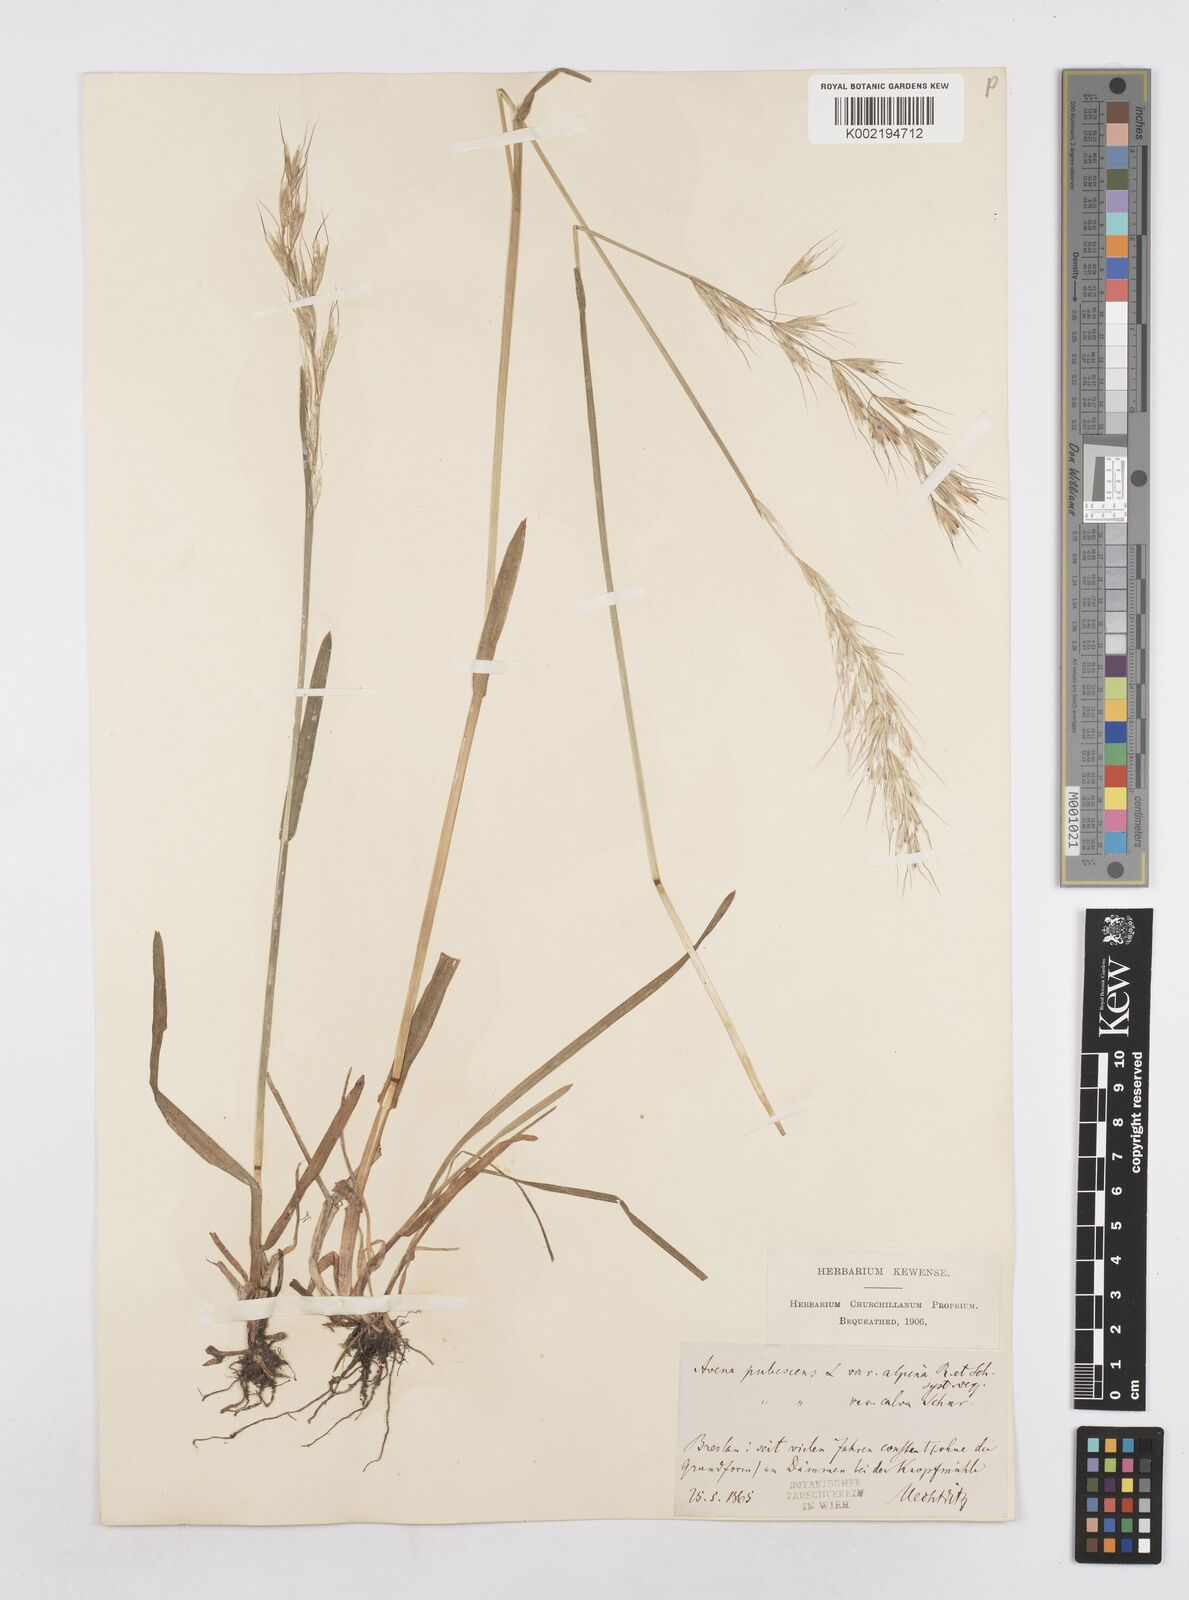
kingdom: Plantae
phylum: Tracheophyta
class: Liliopsida
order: Poales
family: Poaceae
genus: Avenula
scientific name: Avenula pubescens
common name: Downy alpine oatgrass
